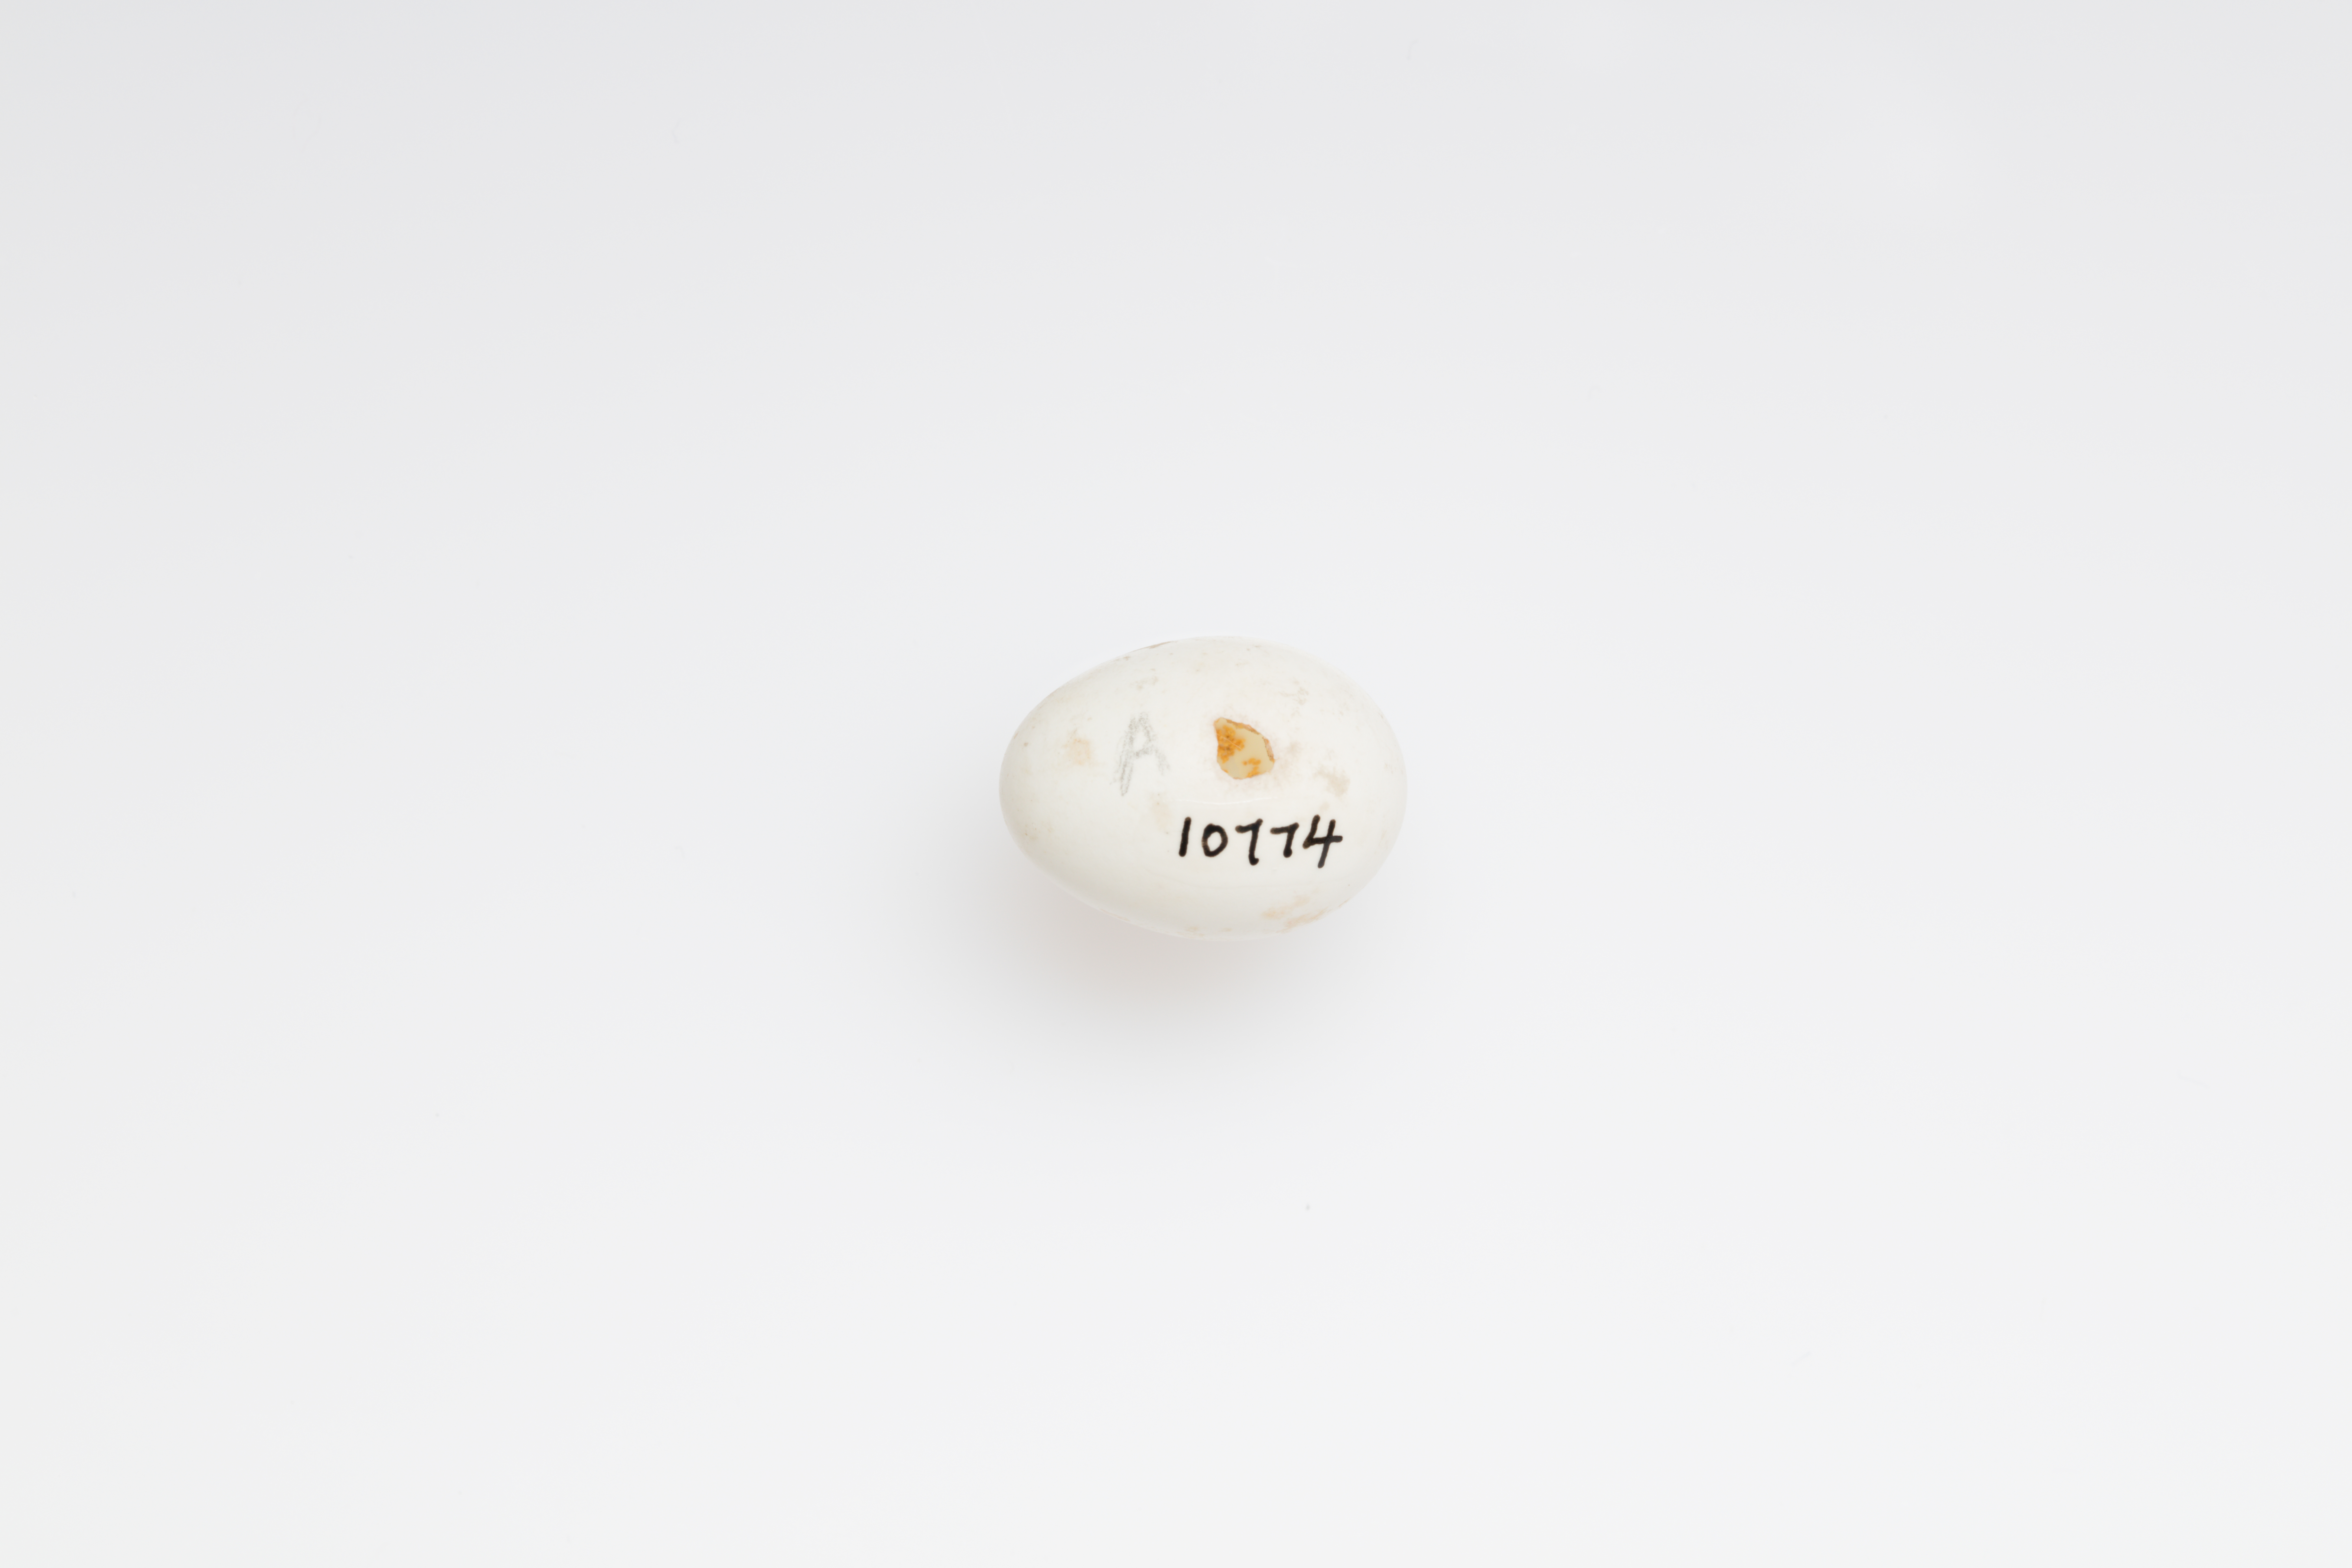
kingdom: Animalia
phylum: Chordata
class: Aves
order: Passeriformes
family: Hirundinidae
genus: Riparia
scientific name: Riparia riparia
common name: Sand martin
